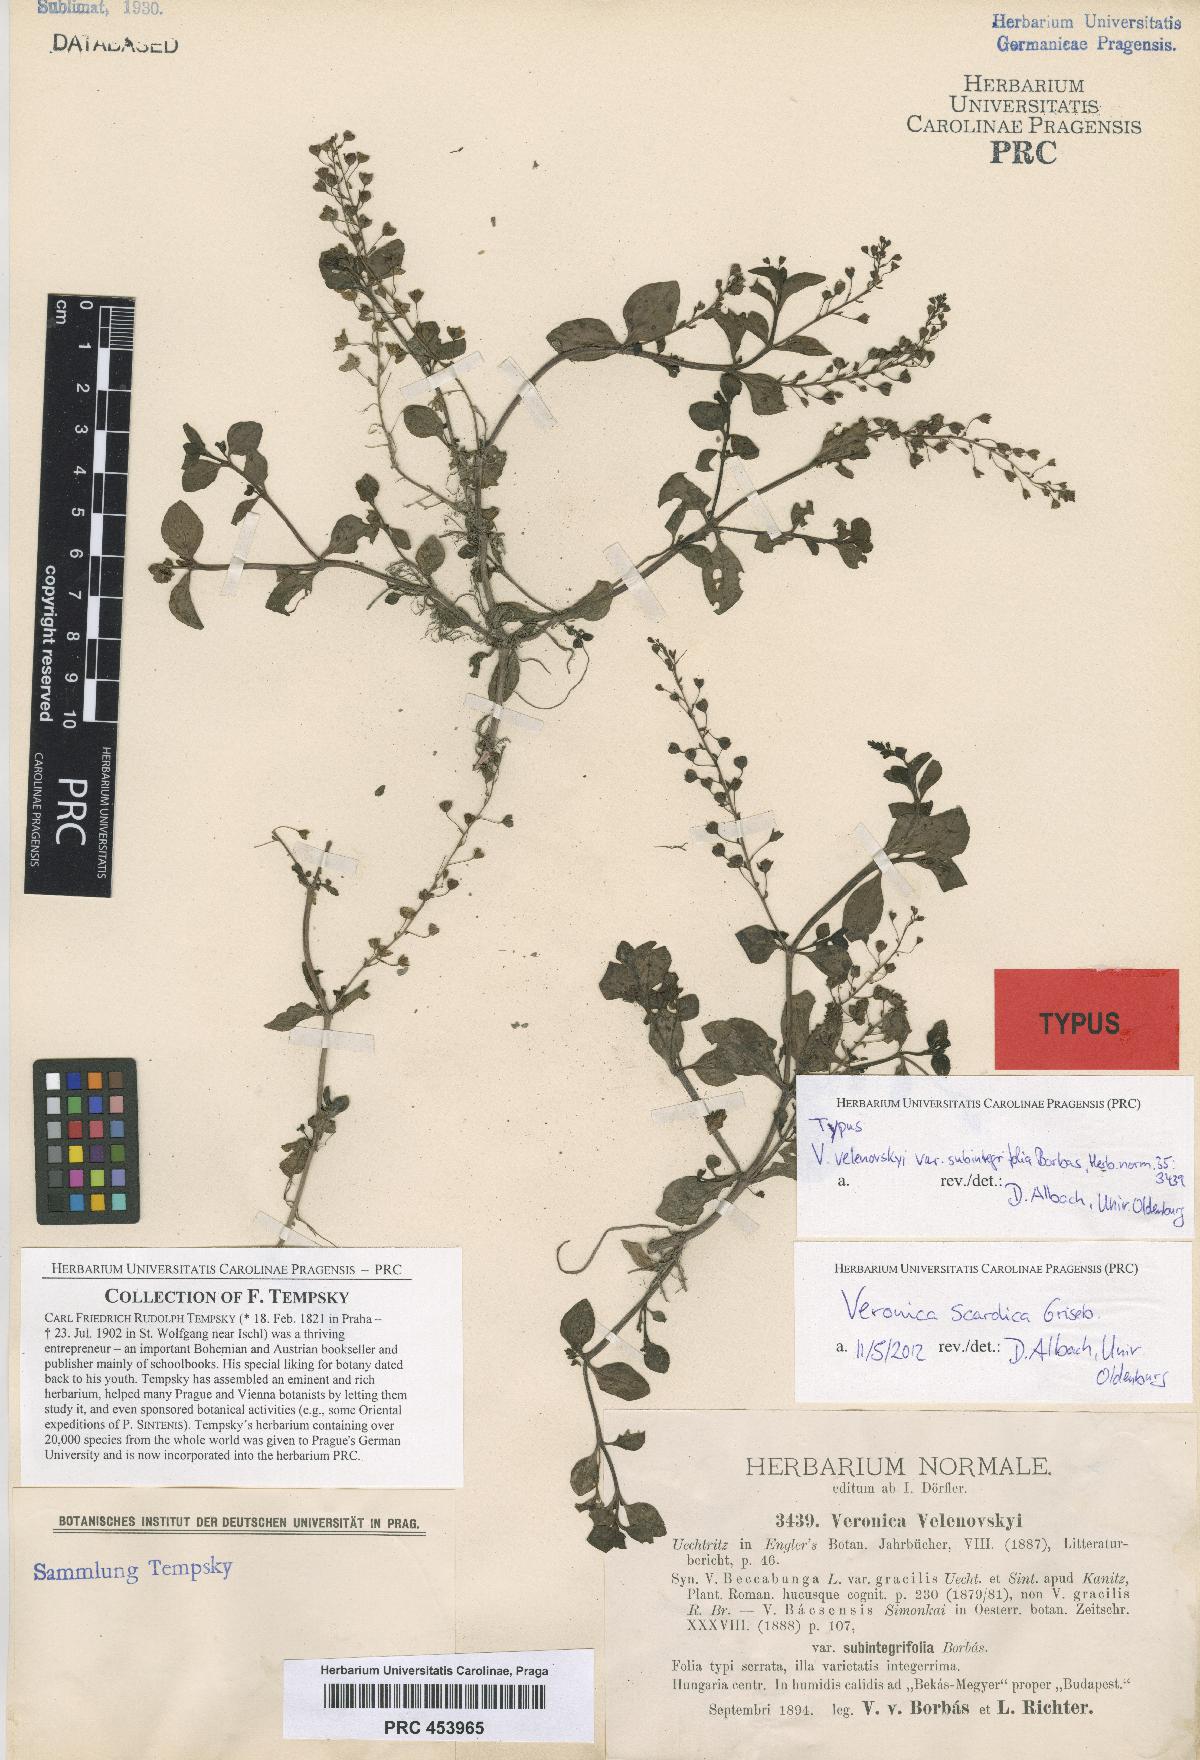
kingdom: Plantae
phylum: Tracheophyta
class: Magnoliopsida
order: Lamiales
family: Plantaginaceae
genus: Veronica
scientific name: Veronica scardica
